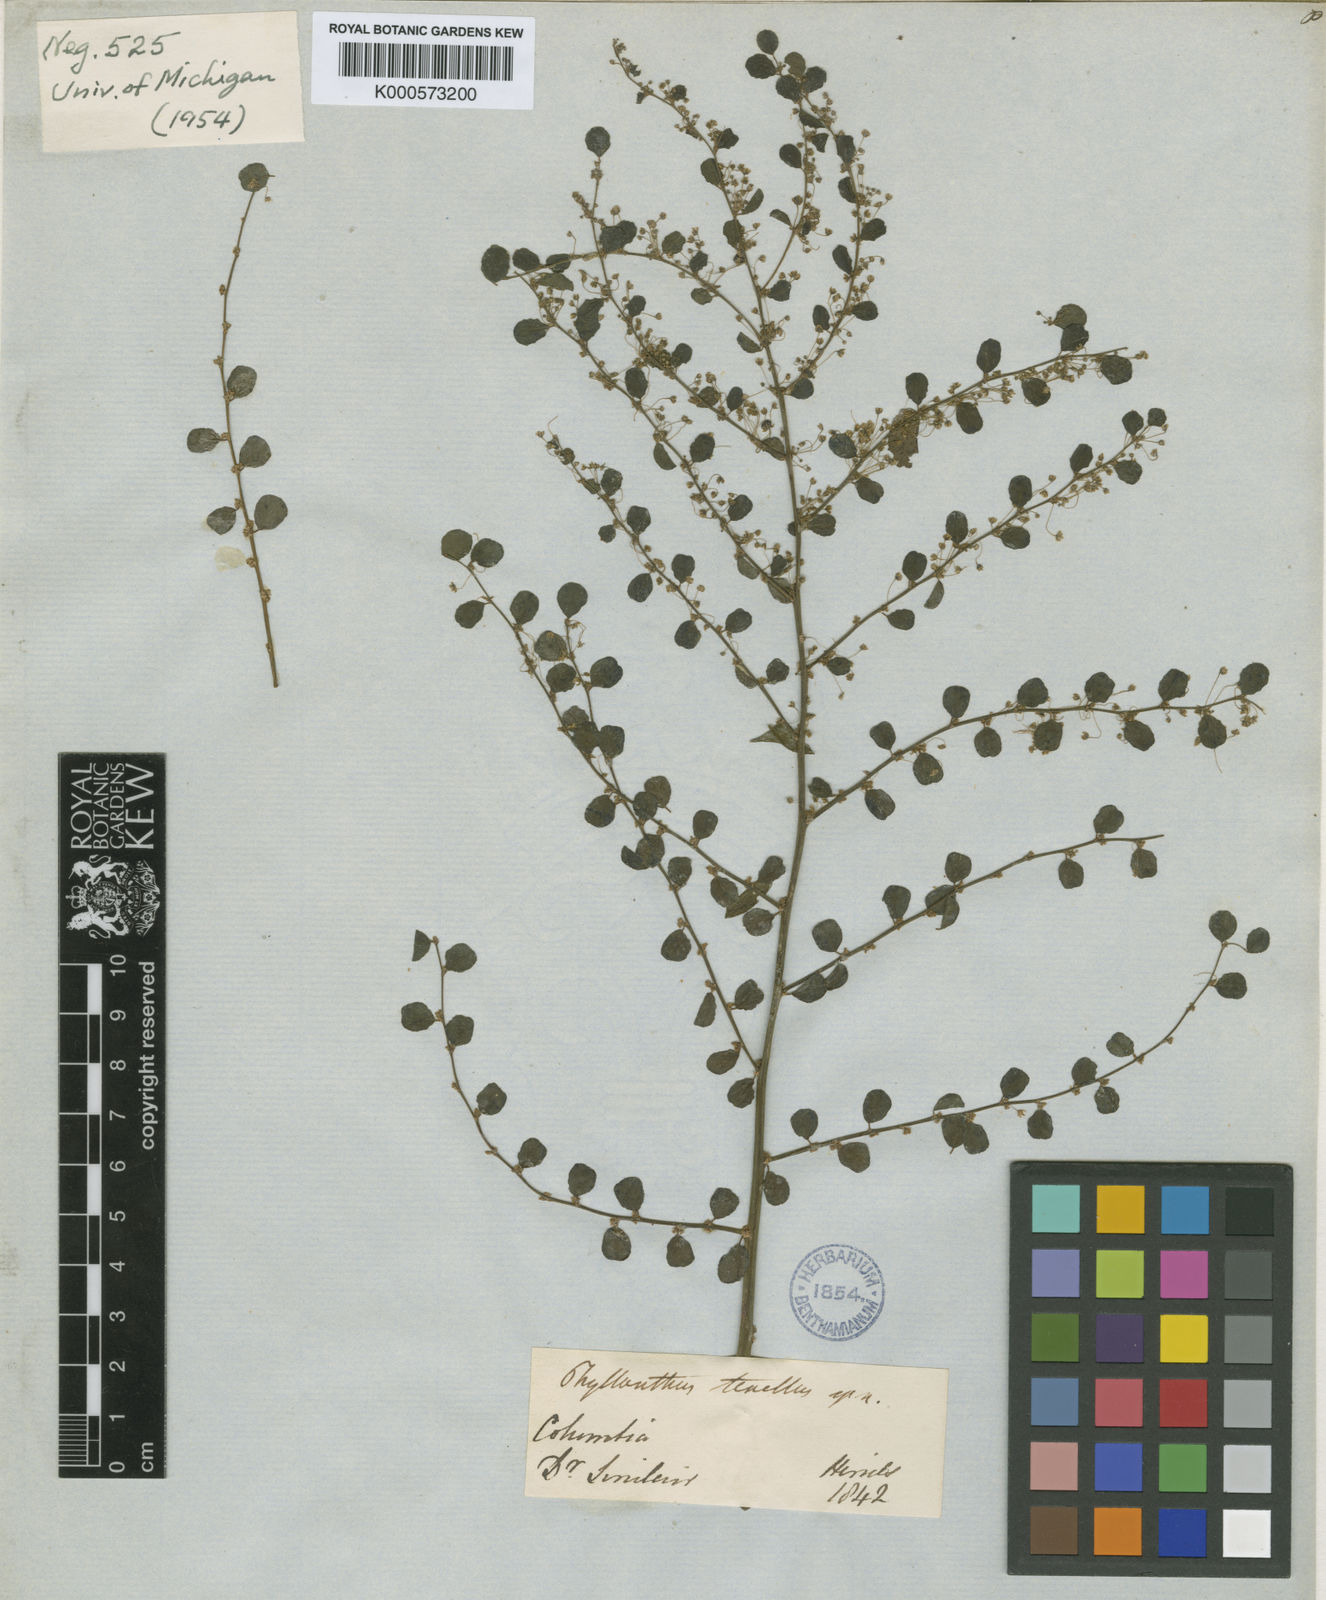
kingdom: Plantae
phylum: Tracheophyta
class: Magnoliopsida
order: Malpighiales
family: Phyllanthaceae
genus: Phyllanthus
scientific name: Phyllanthus graveolens
